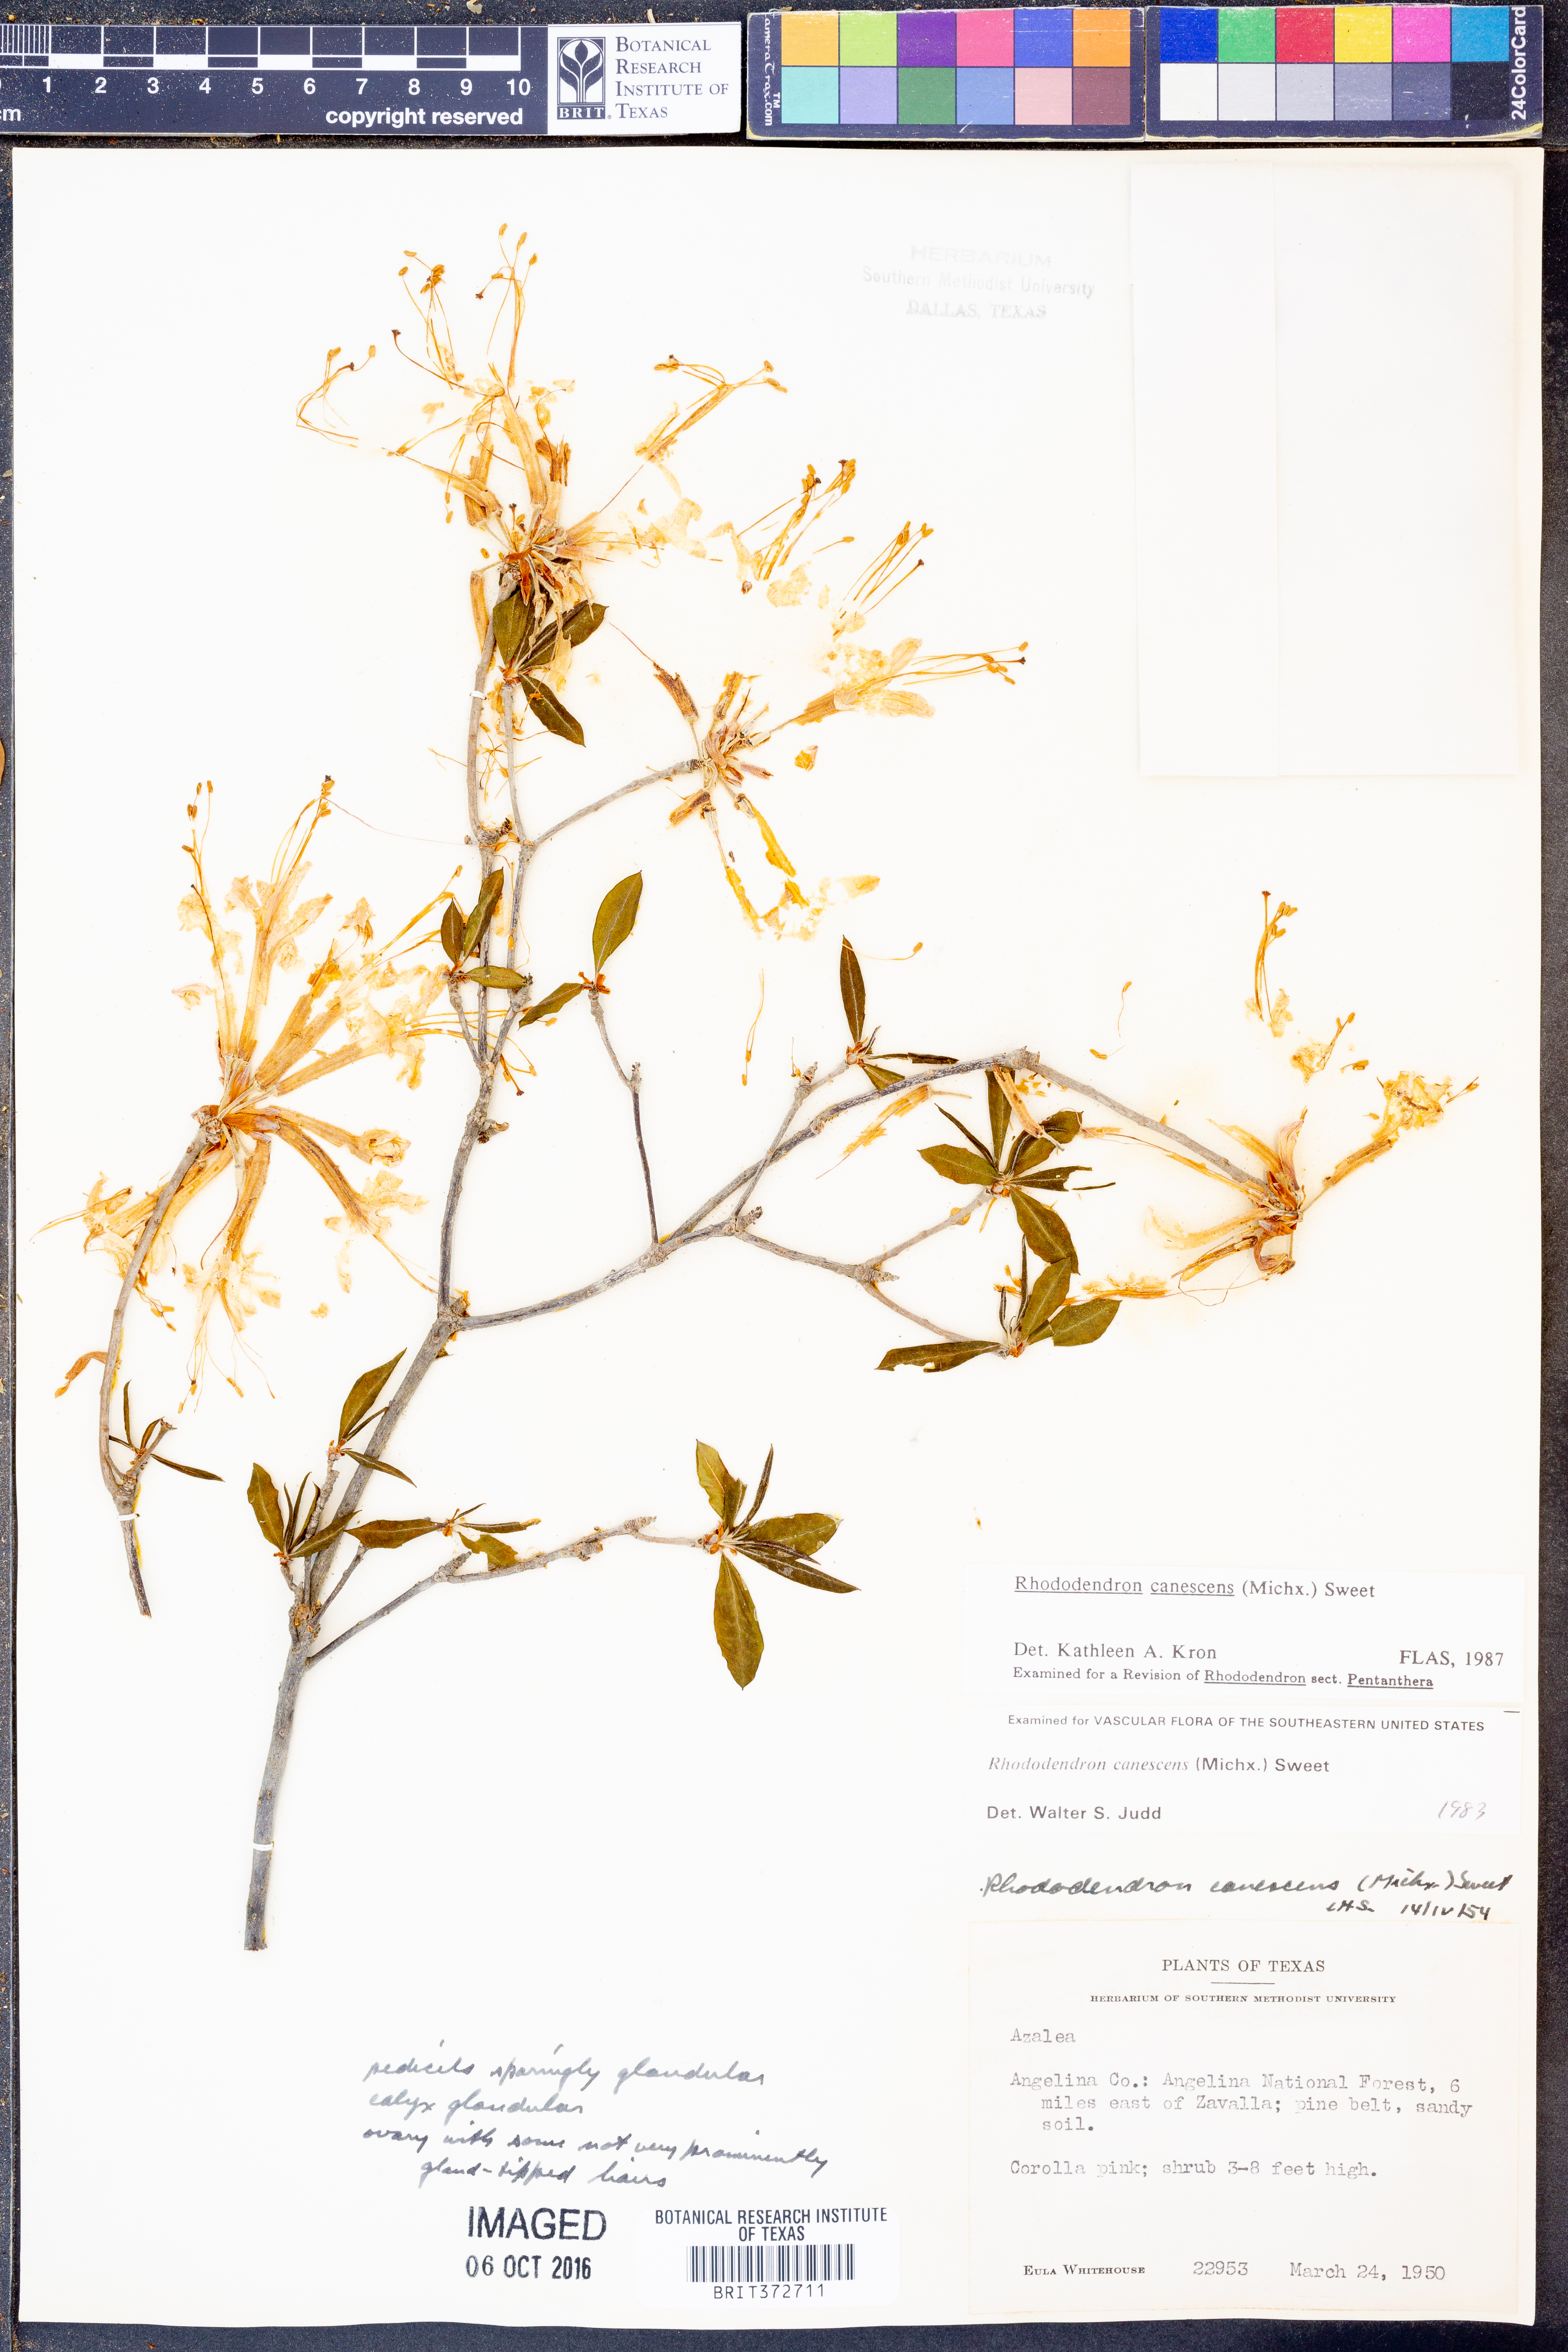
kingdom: Plantae
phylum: Tracheophyta
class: Magnoliopsida
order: Ericales
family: Ericaceae
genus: Rhododendron
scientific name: Rhododendron canescens
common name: Mountain azalea
